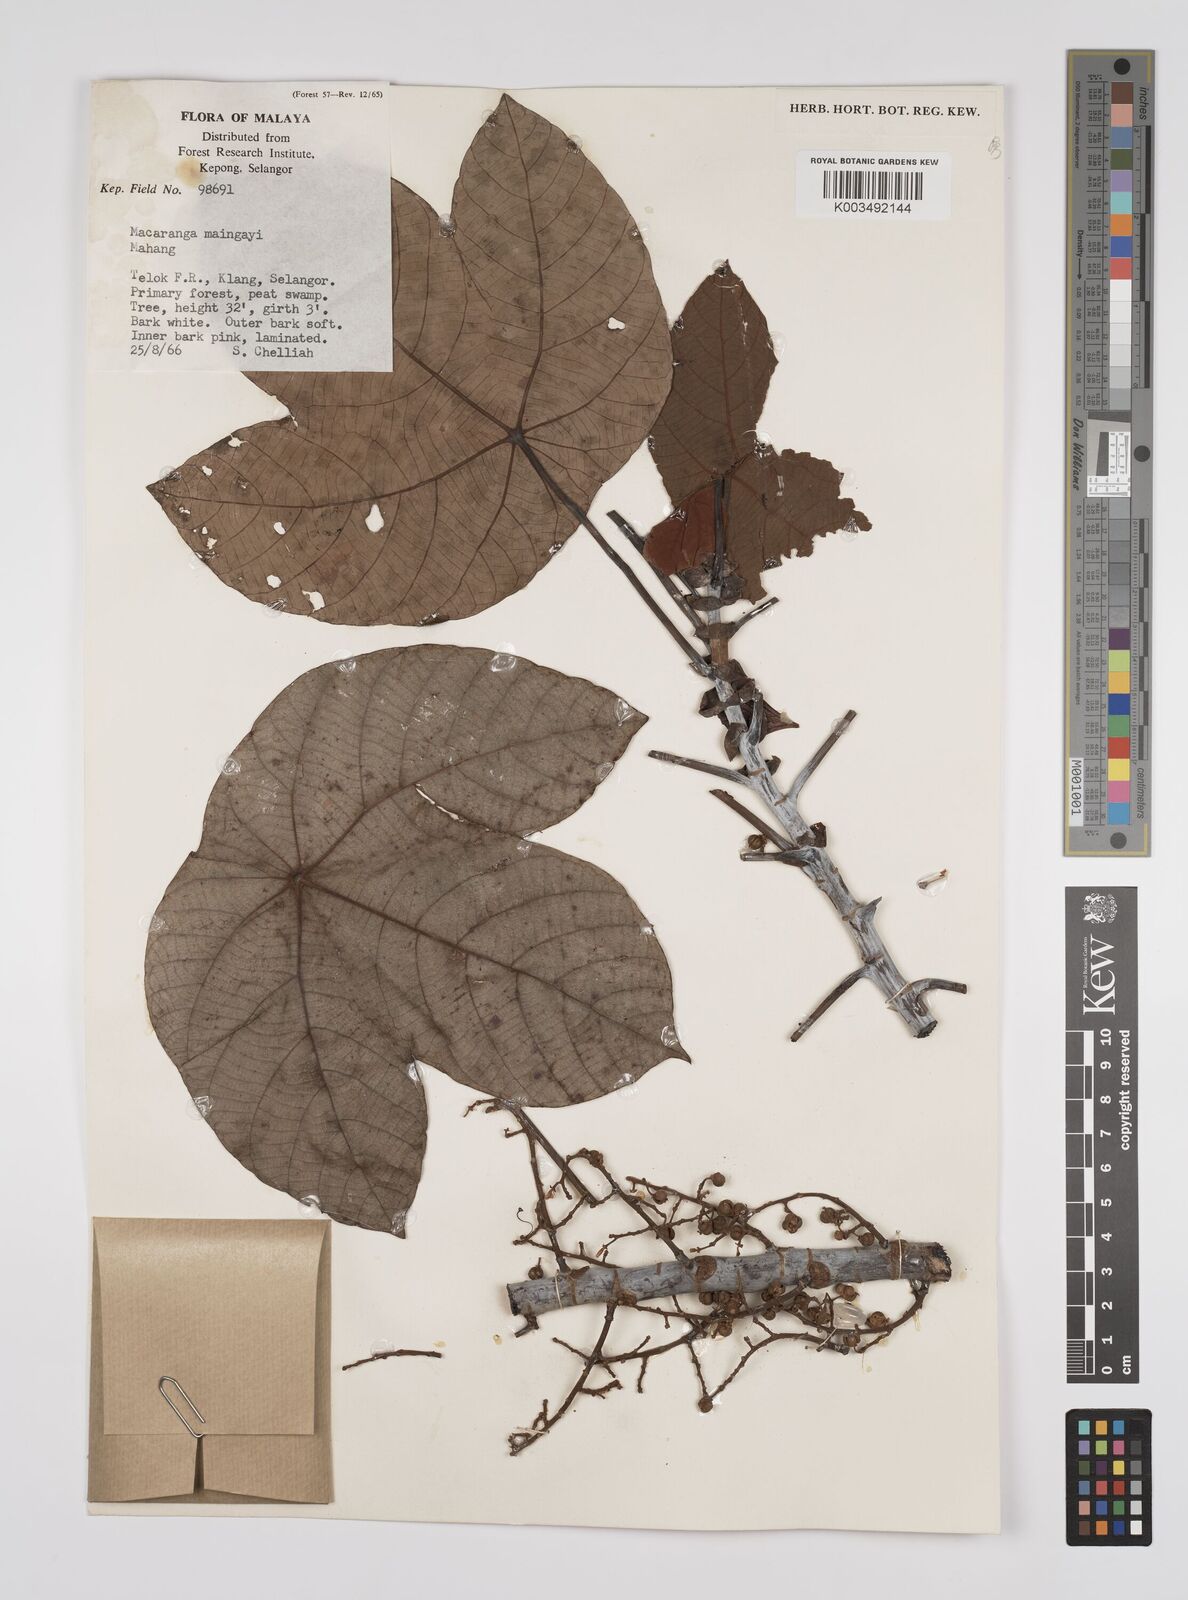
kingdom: Plantae
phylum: Tracheophyta
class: Magnoliopsida
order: Malpighiales
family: Euphorbiaceae
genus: Macaranga
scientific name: Macaranga pruinosa
